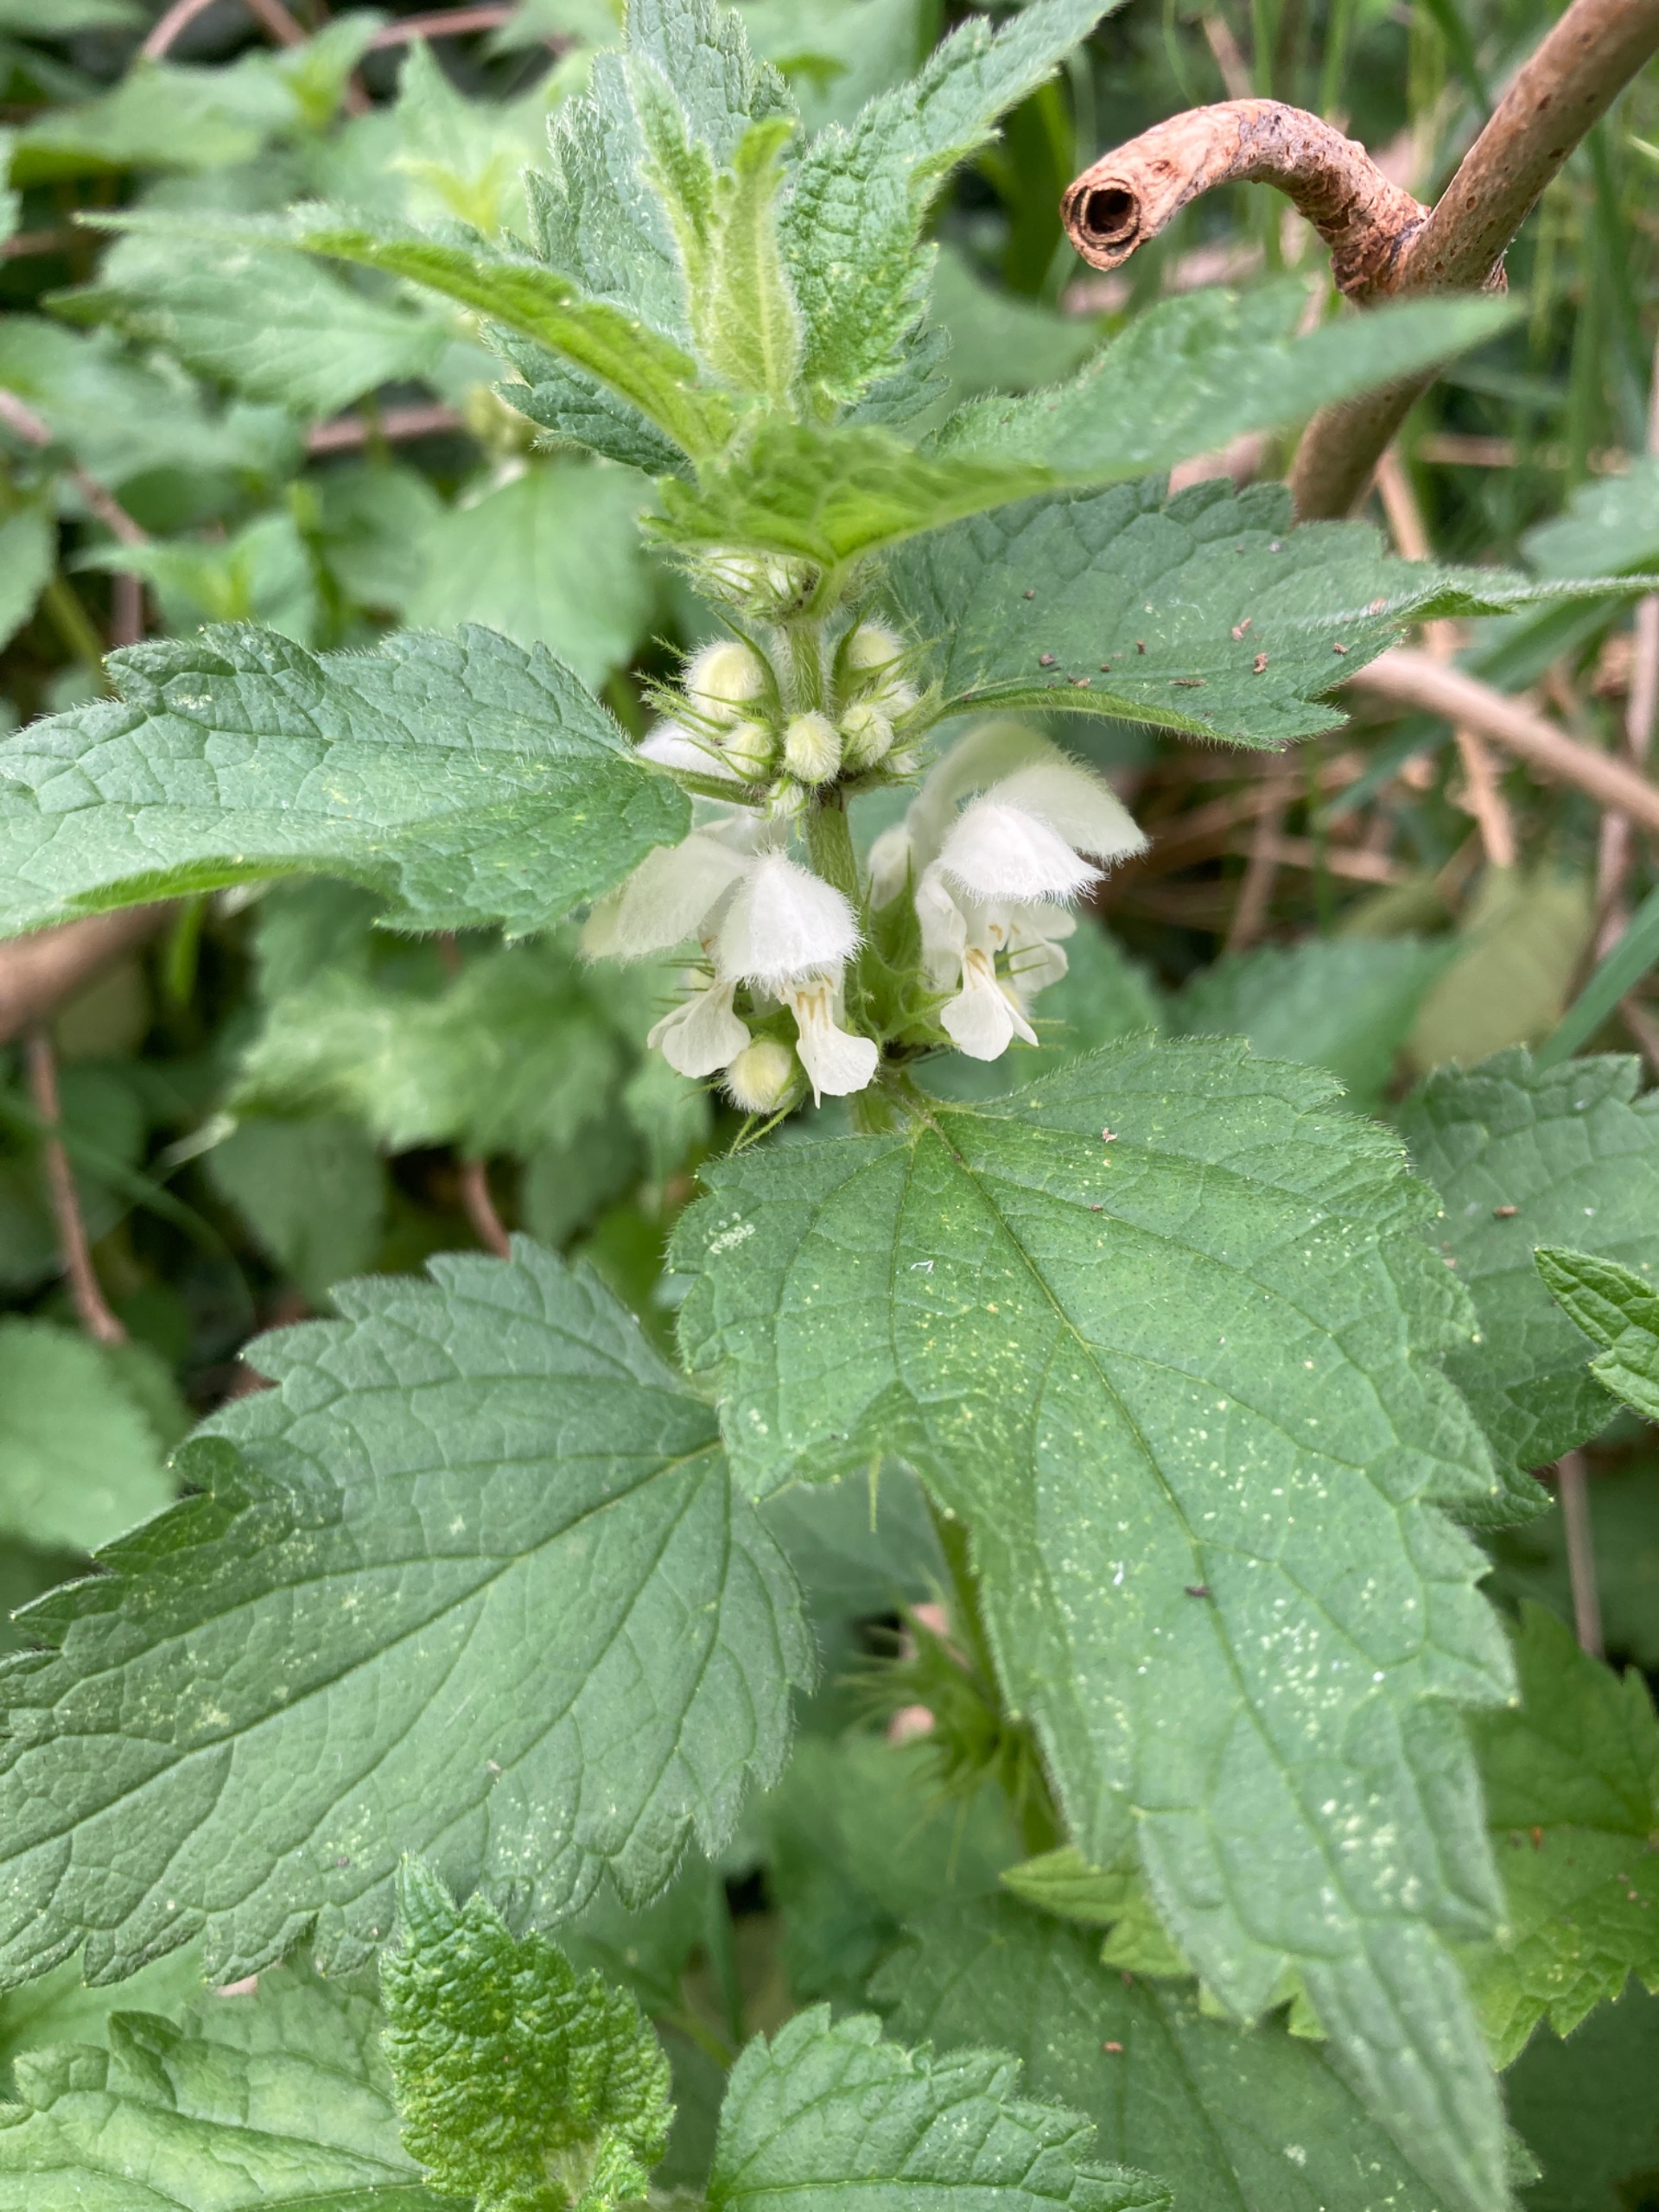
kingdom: Plantae
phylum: Tracheophyta
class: Magnoliopsida
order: Lamiales
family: Lamiaceae
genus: Lamium
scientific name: Lamium album
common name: Døvnælde
